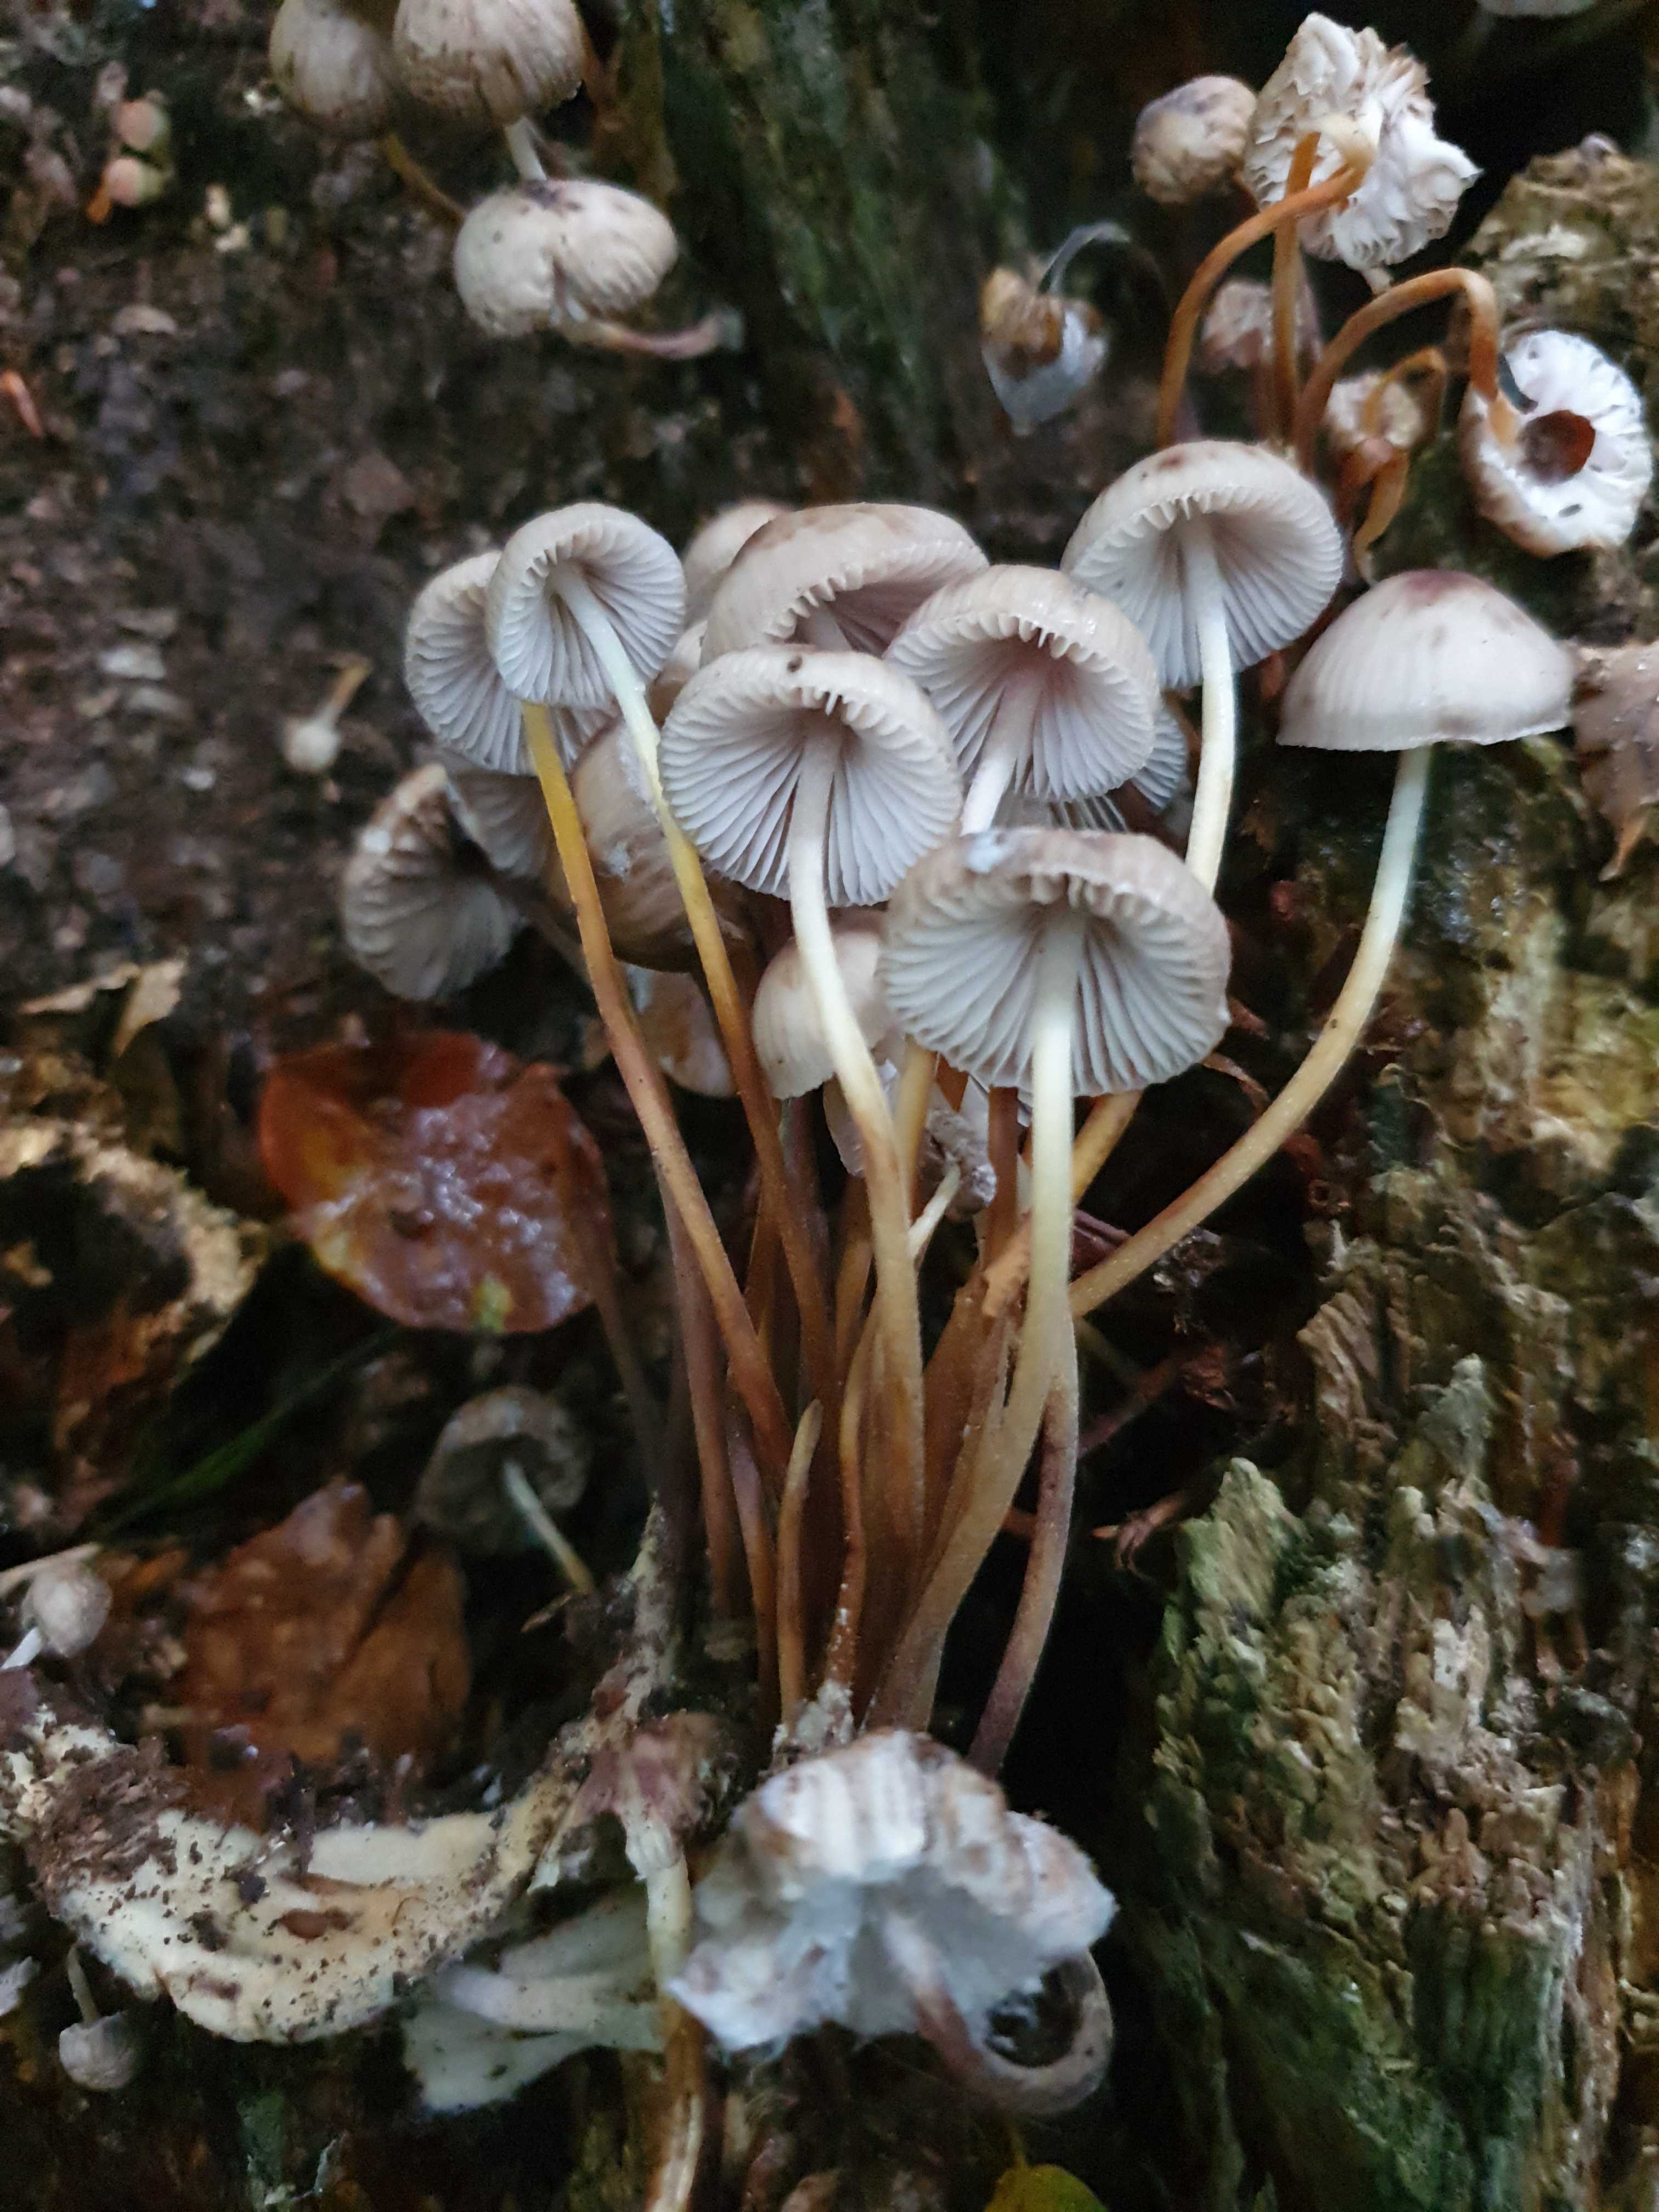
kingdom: Fungi
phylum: Basidiomycota
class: Agaricomycetes
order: Agaricales
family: Mycenaceae
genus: Mycena
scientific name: Mycena inclinata
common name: nikkende huesvamp
